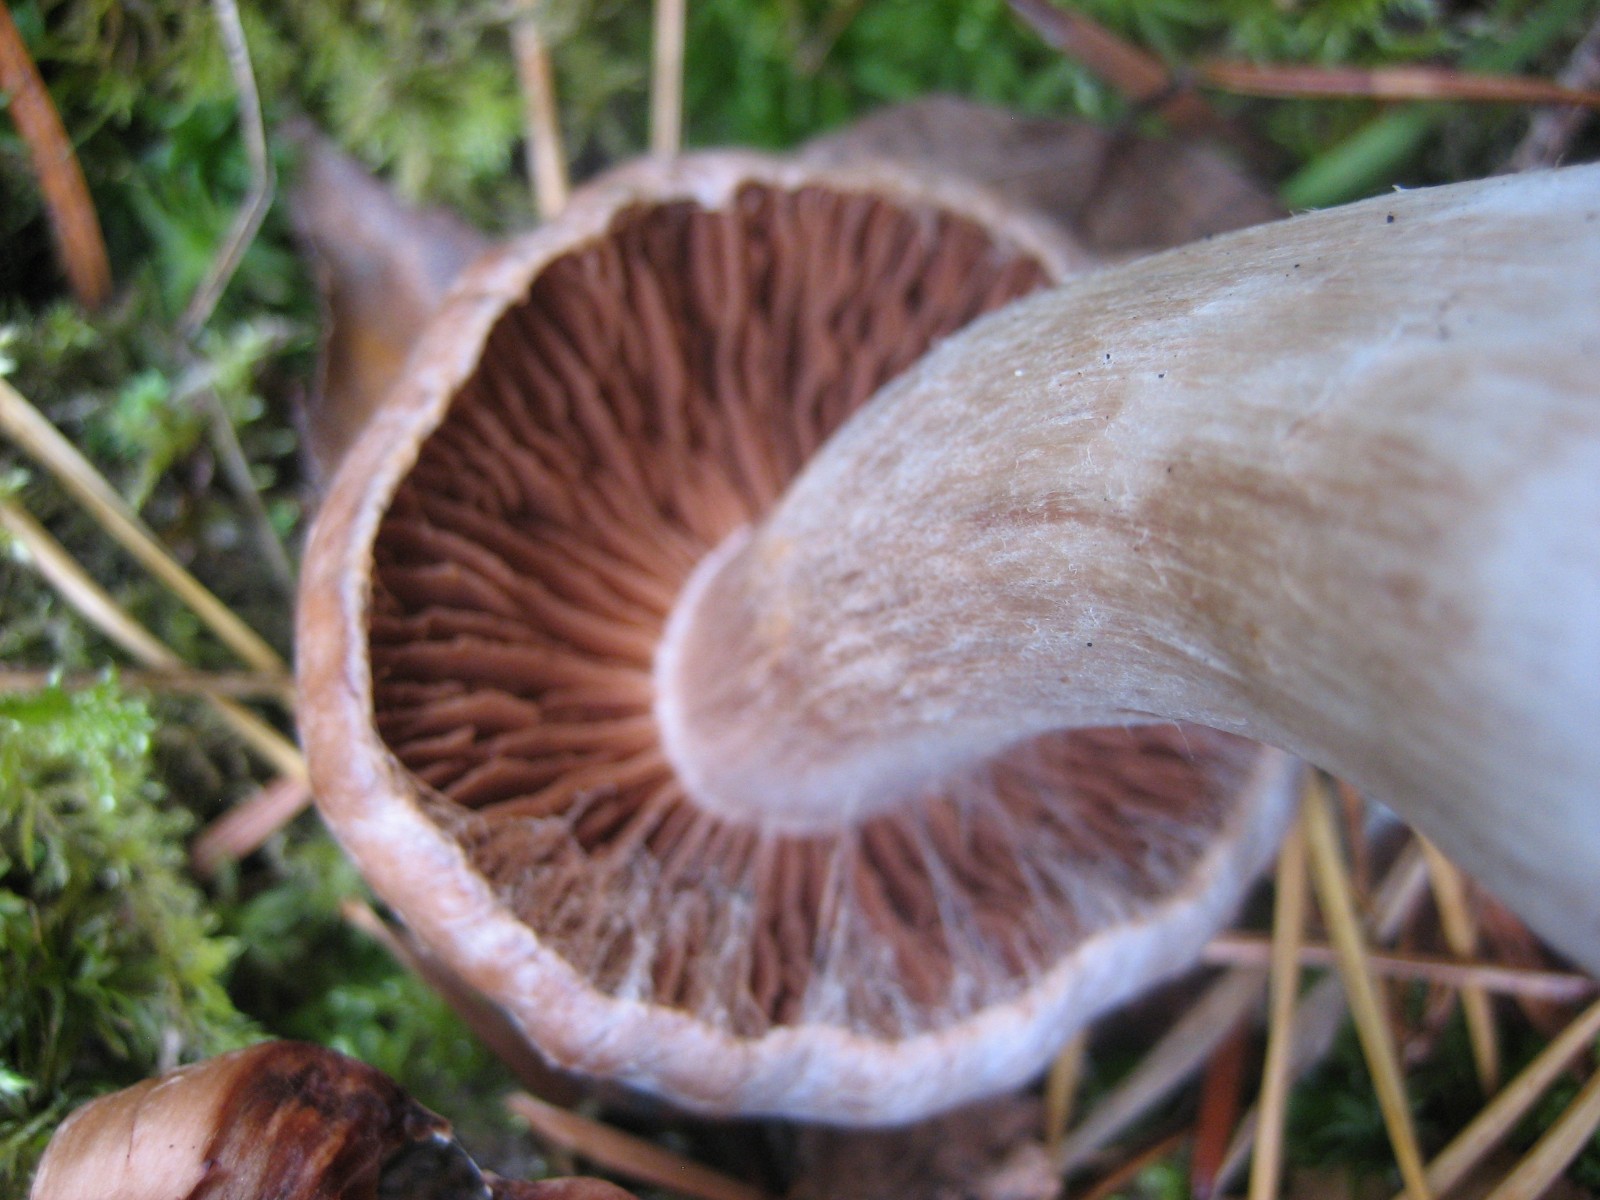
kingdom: Fungi
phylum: Basidiomycota
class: Agaricomycetes
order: Agaricales
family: Cortinariaceae
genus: Cortinarius
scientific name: Cortinarius
